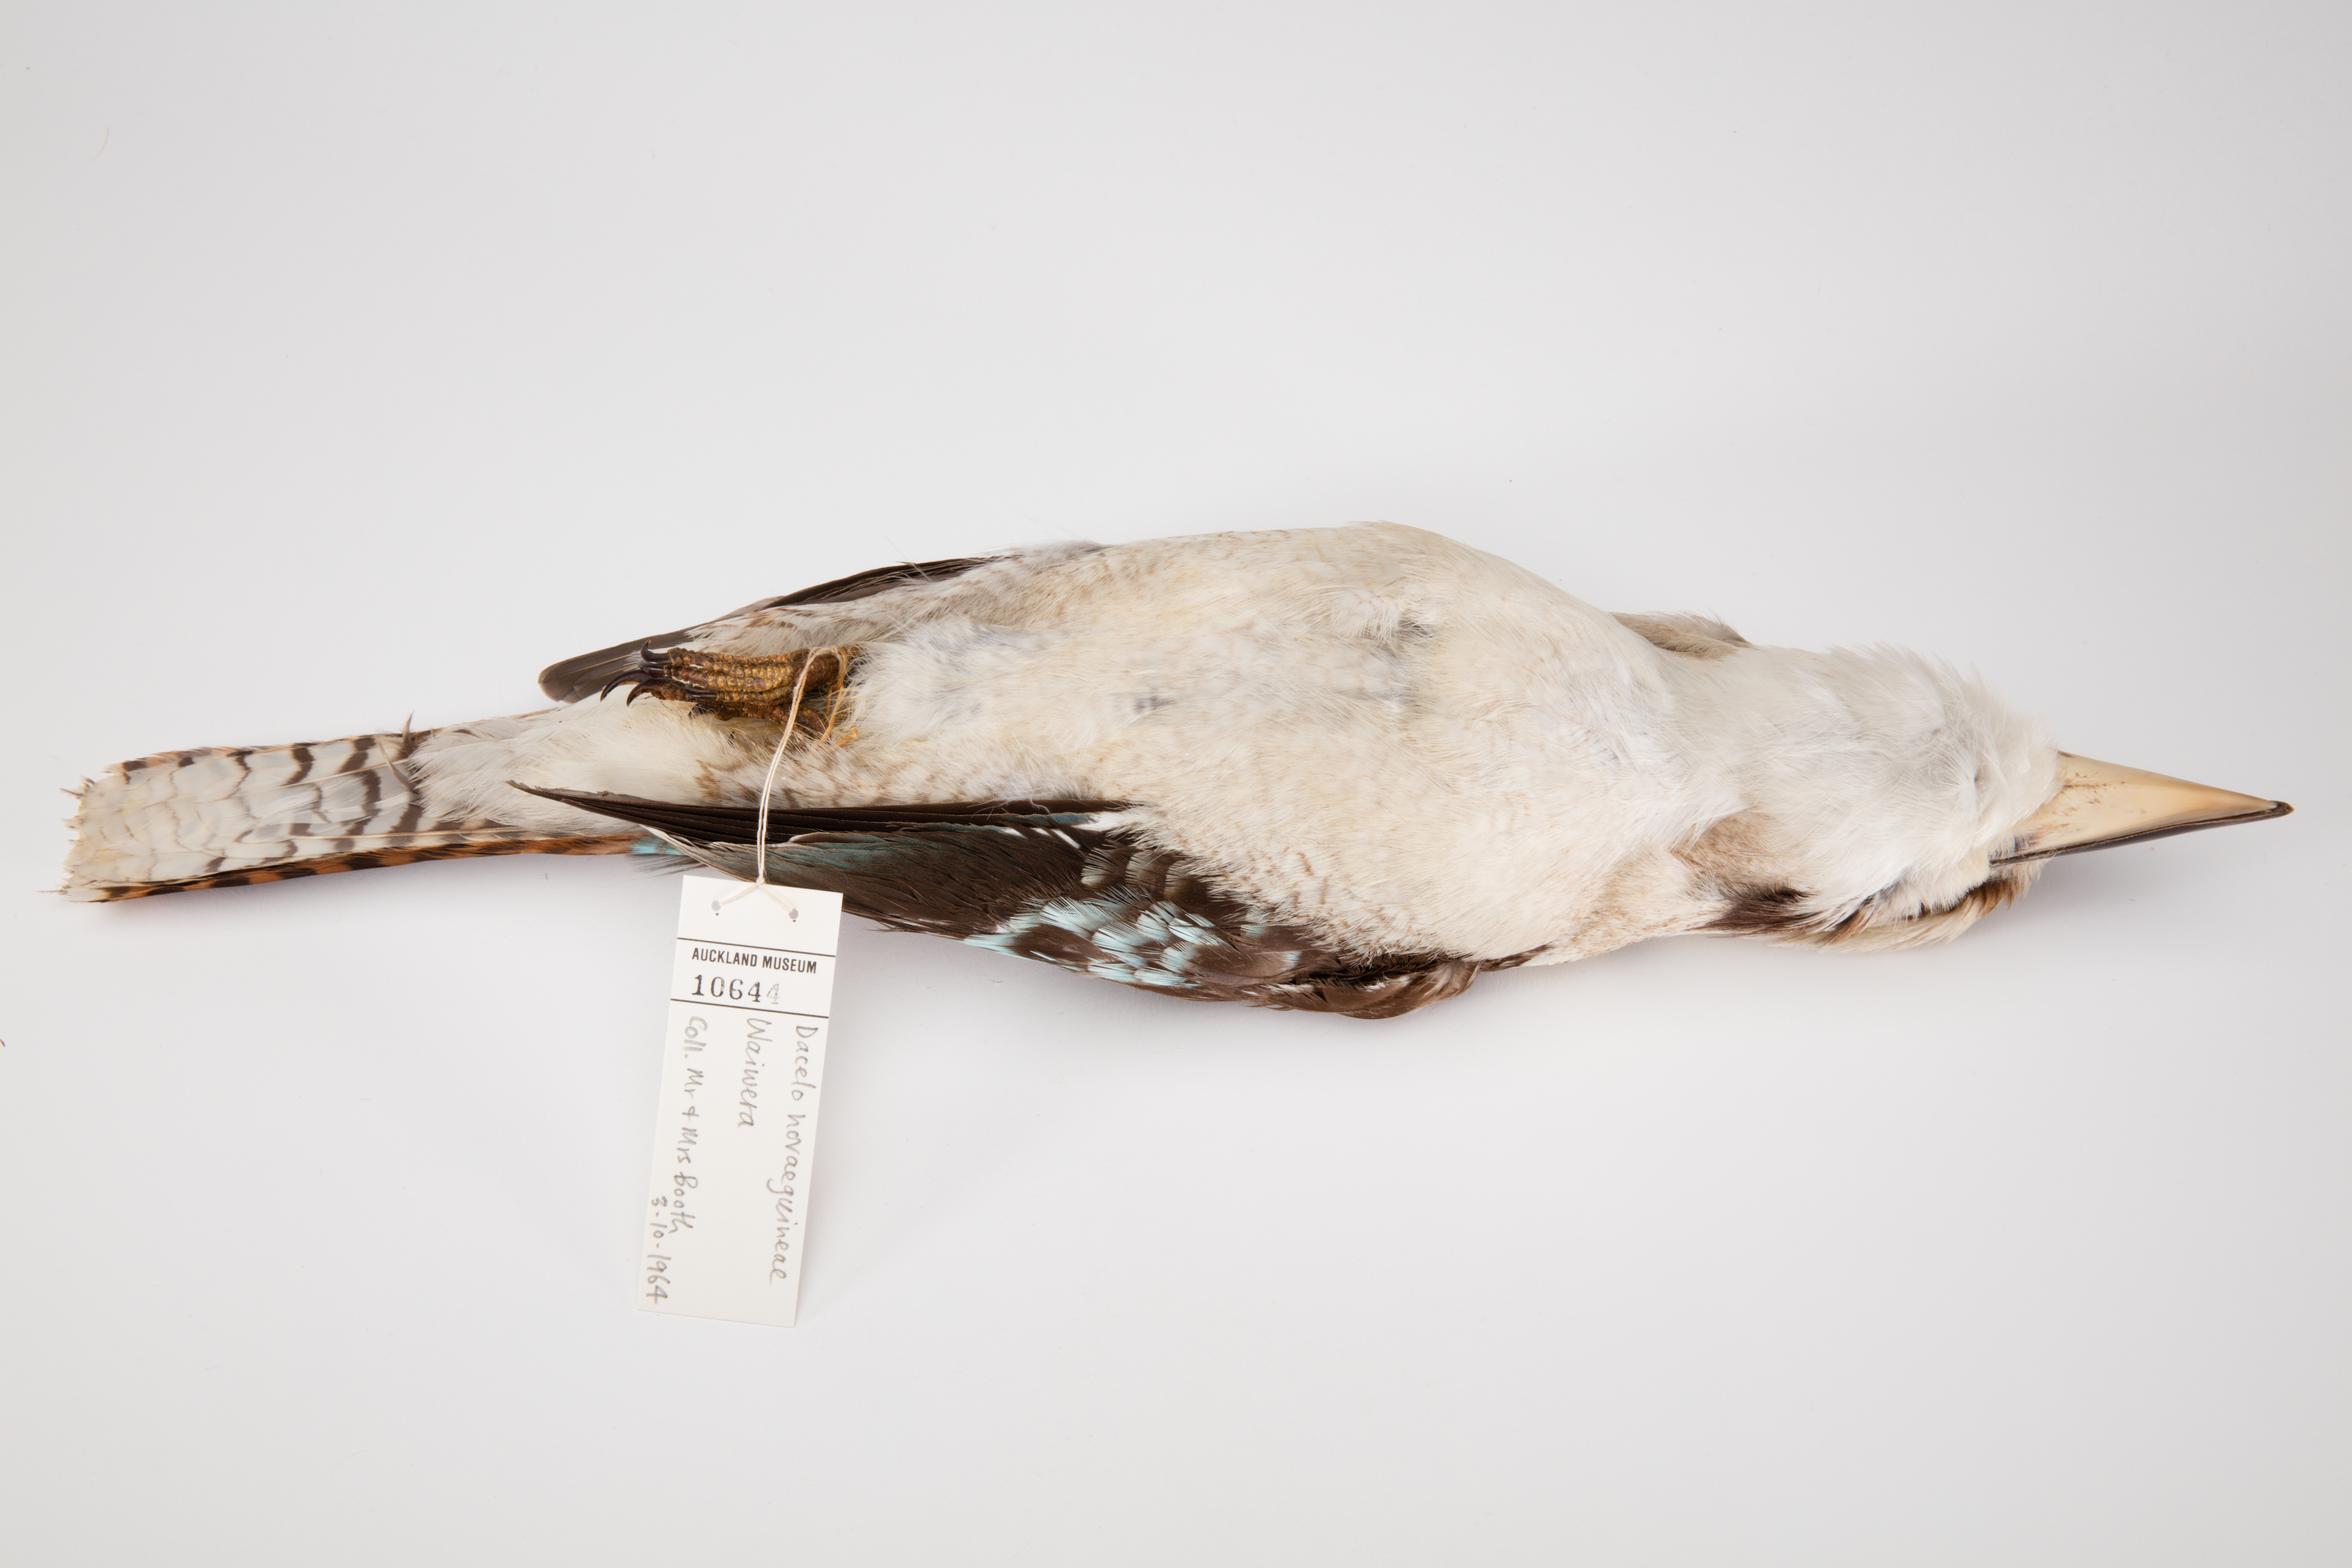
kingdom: Animalia
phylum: Chordata
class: Aves
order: Coraciiformes
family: Alcedinidae
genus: Dacelo
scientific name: Dacelo novaeguineae
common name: Laughing kookaburra
